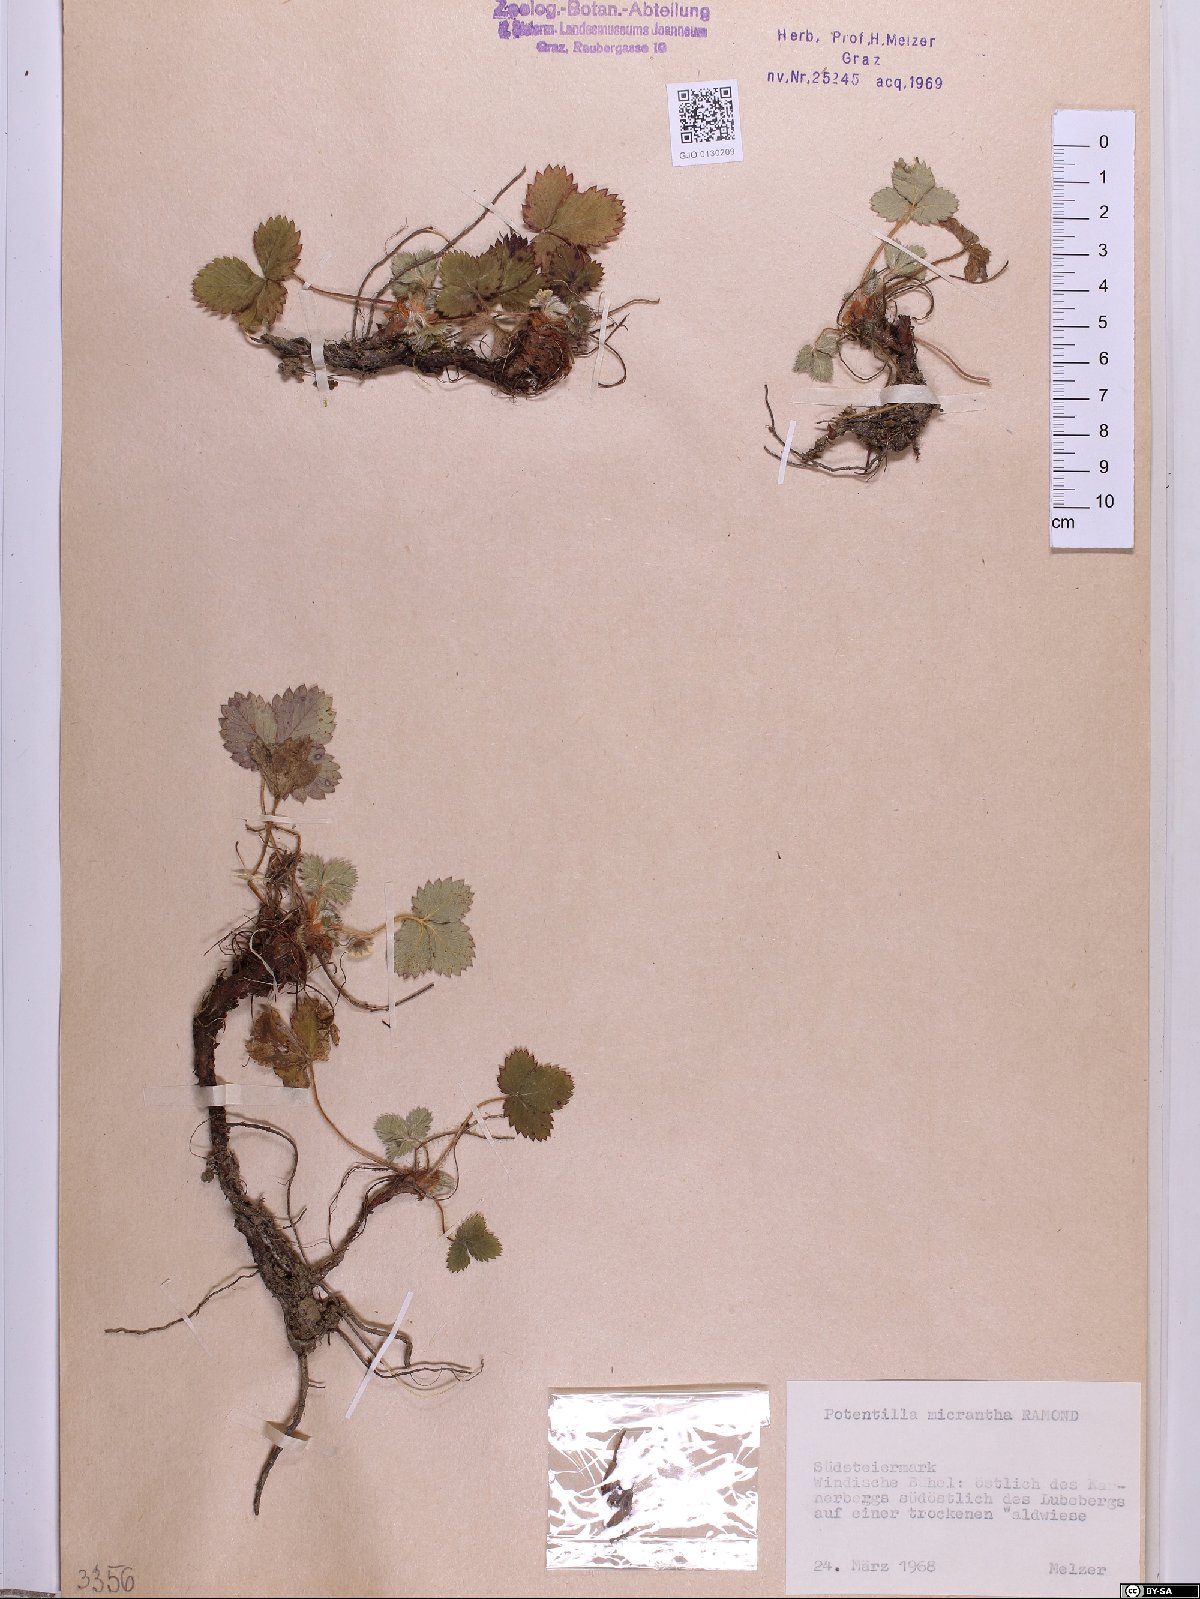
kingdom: Plantae
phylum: Tracheophyta
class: Magnoliopsida
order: Rosales
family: Rosaceae
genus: Potentilla
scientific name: Potentilla micrantha
